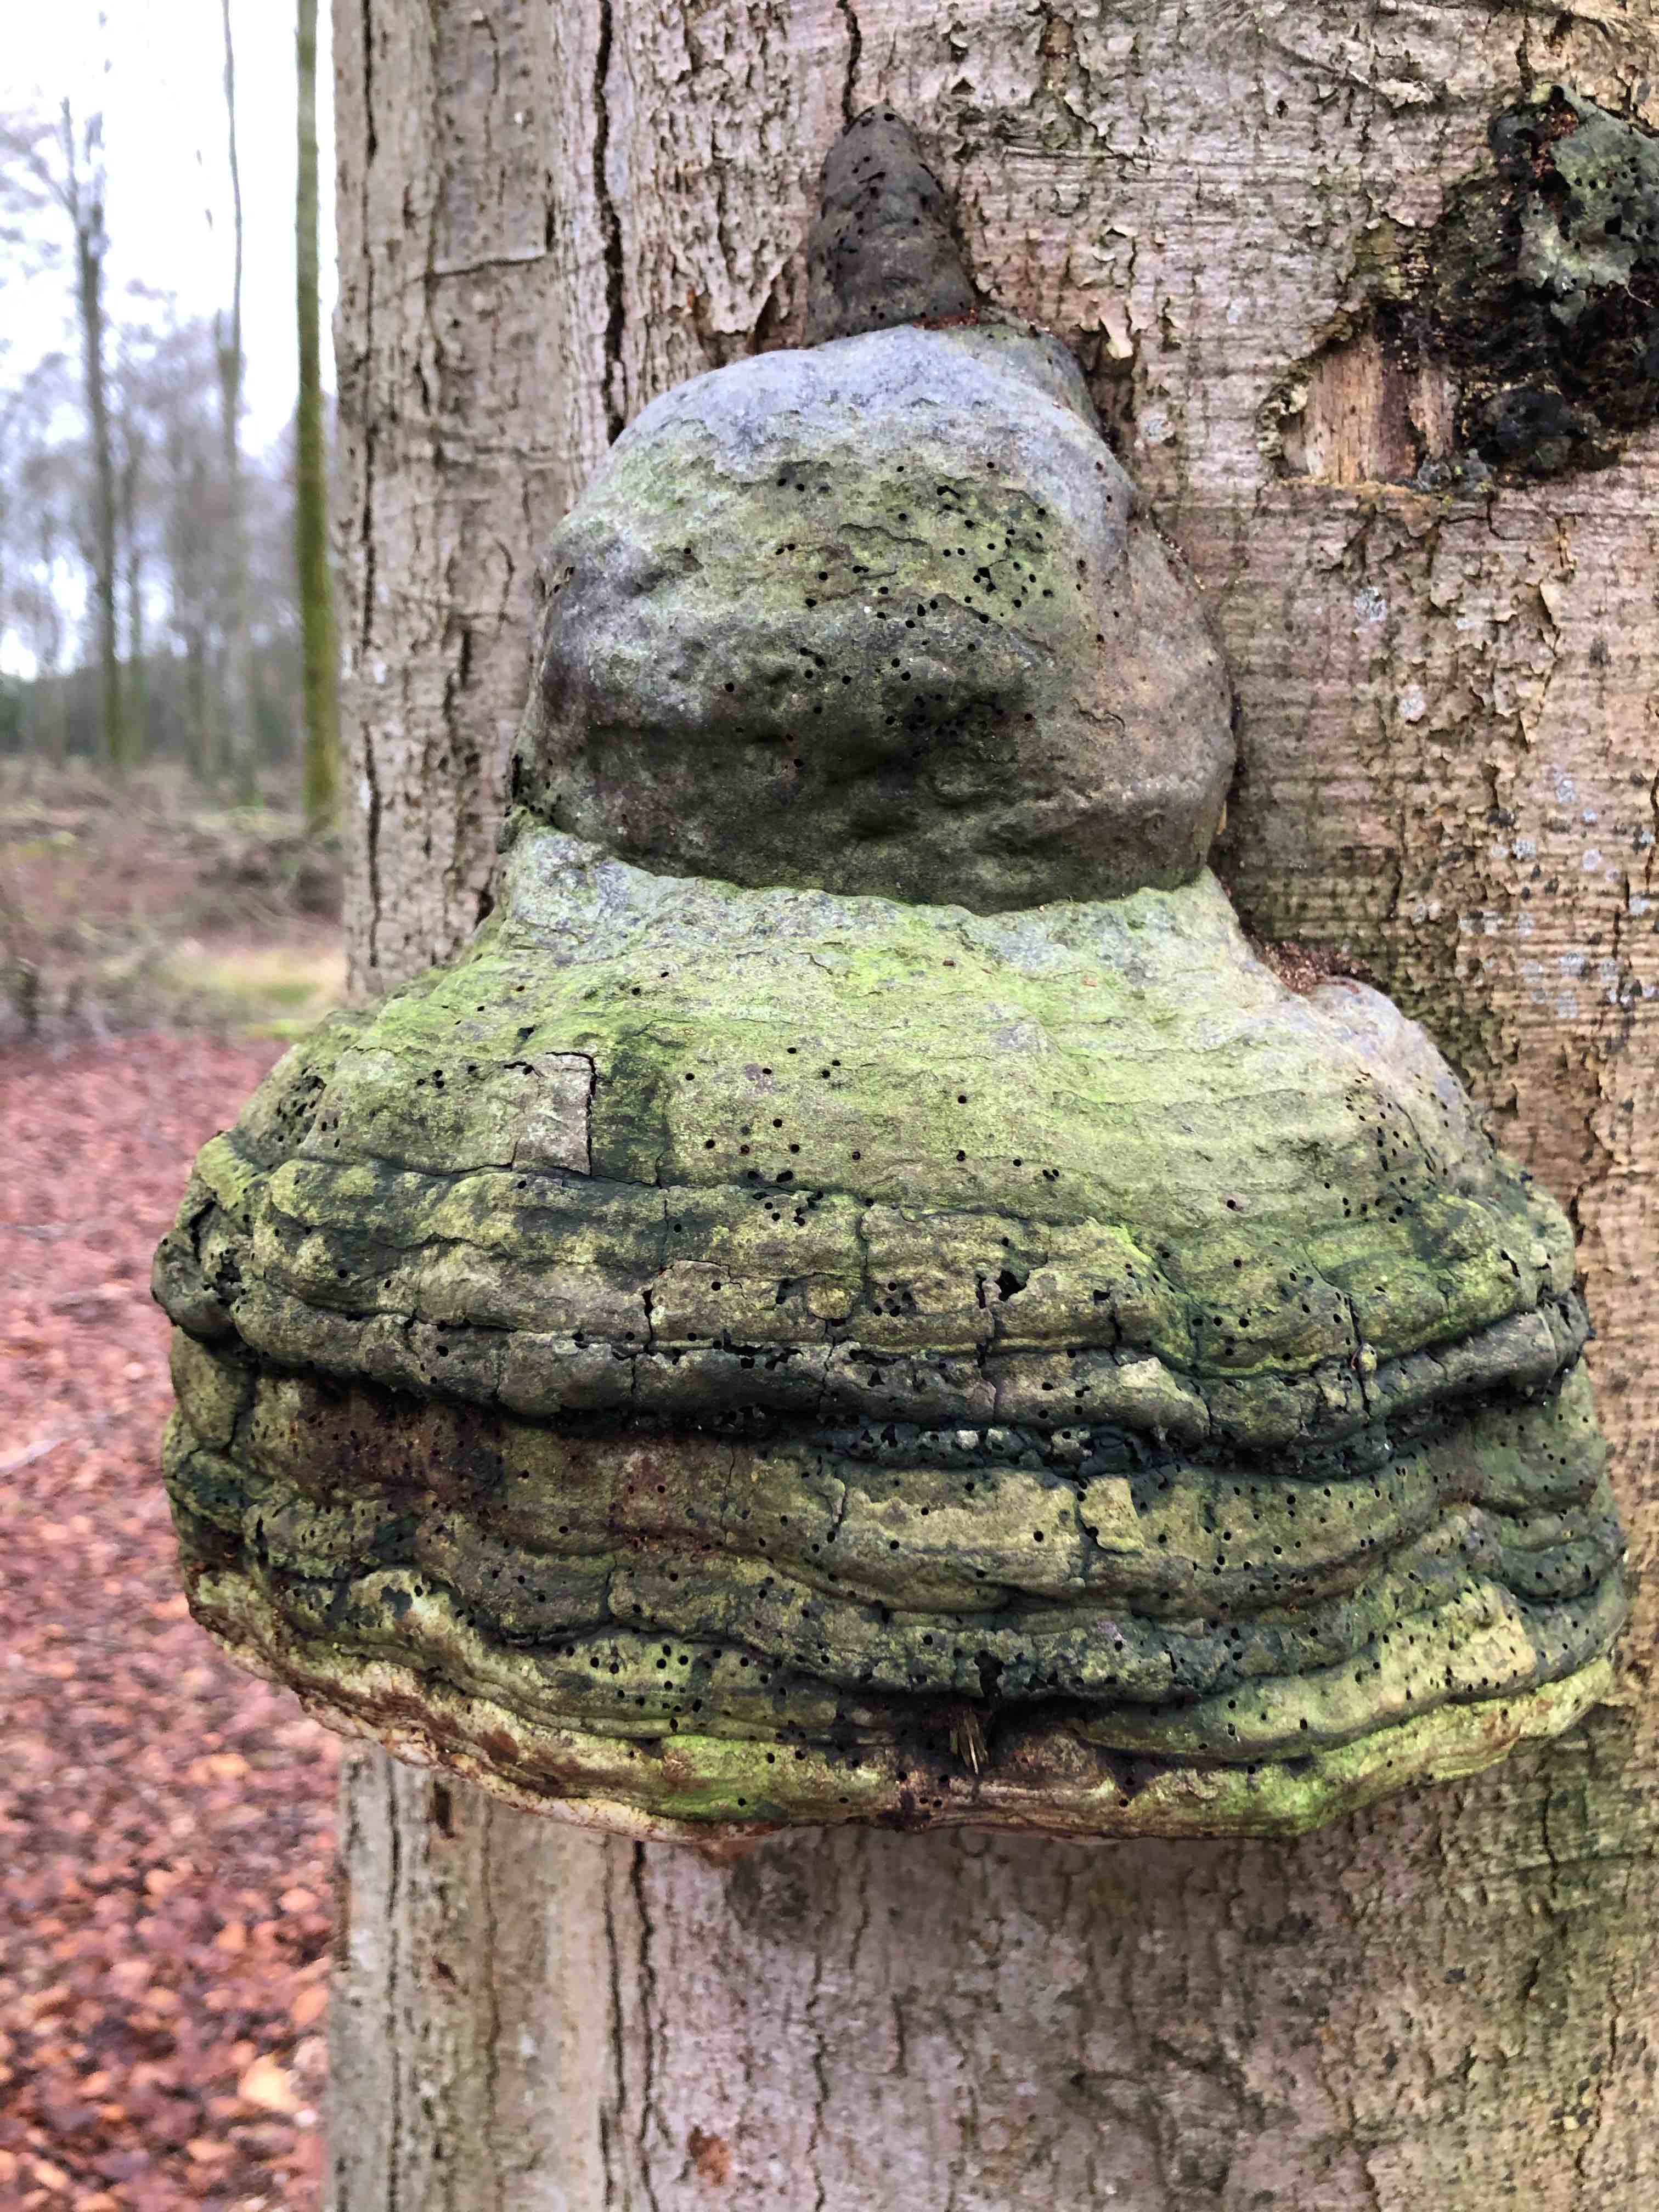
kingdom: Fungi
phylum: Basidiomycota
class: Agaricomycetes
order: Polyporales
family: Polyporaceae
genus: Fomes
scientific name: Fomes fomentarius
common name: tøndersvamp
